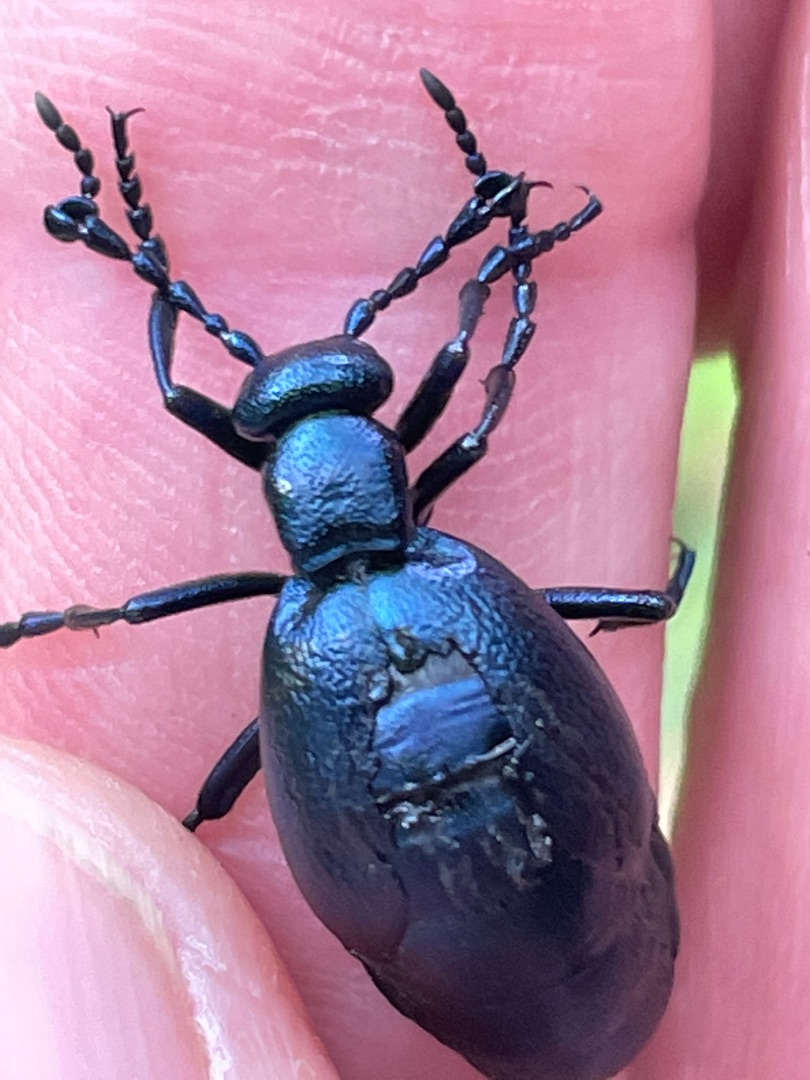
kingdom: Animalia
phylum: Arthropoda
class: Insecta
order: Coleoptera
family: Meloidae
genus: Meloe
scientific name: Meloe violaceus
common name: Blå oliebille
